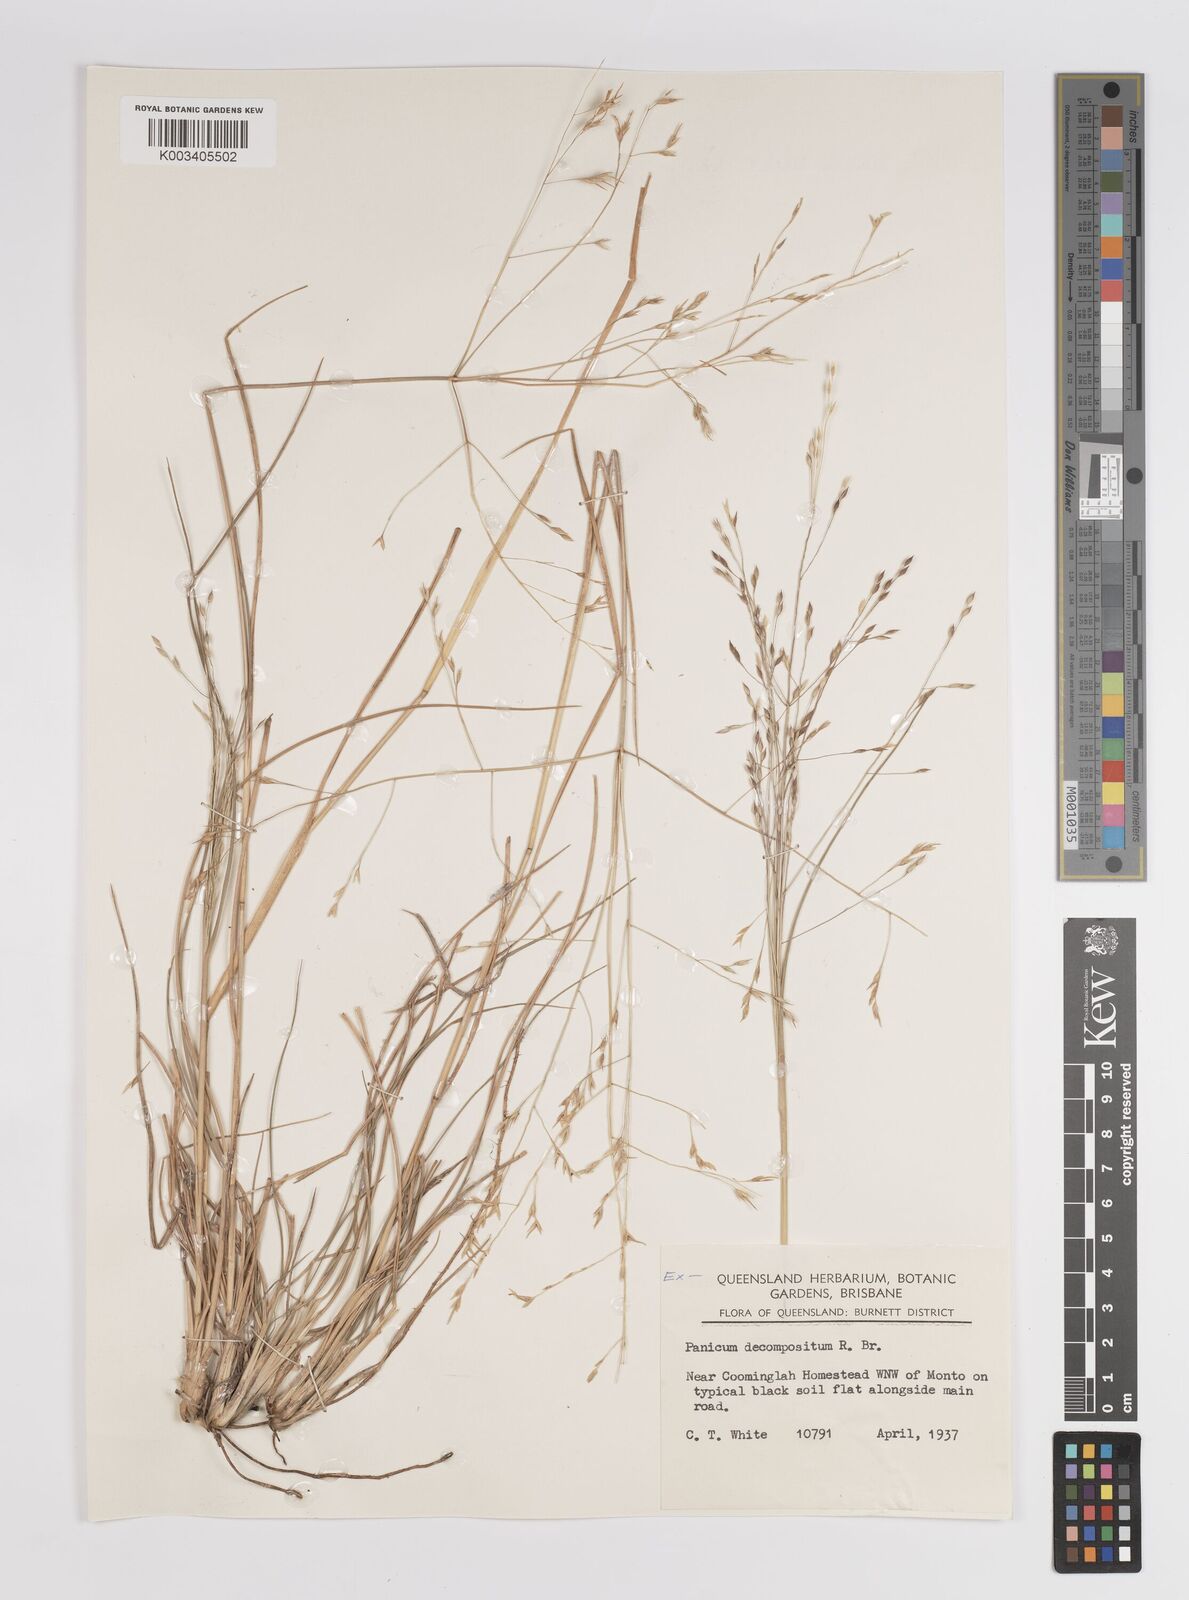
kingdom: Plantae
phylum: Tracheophyta
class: Liliopsida
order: Poales
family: Poaceae
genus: Panicum
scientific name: Panicum
